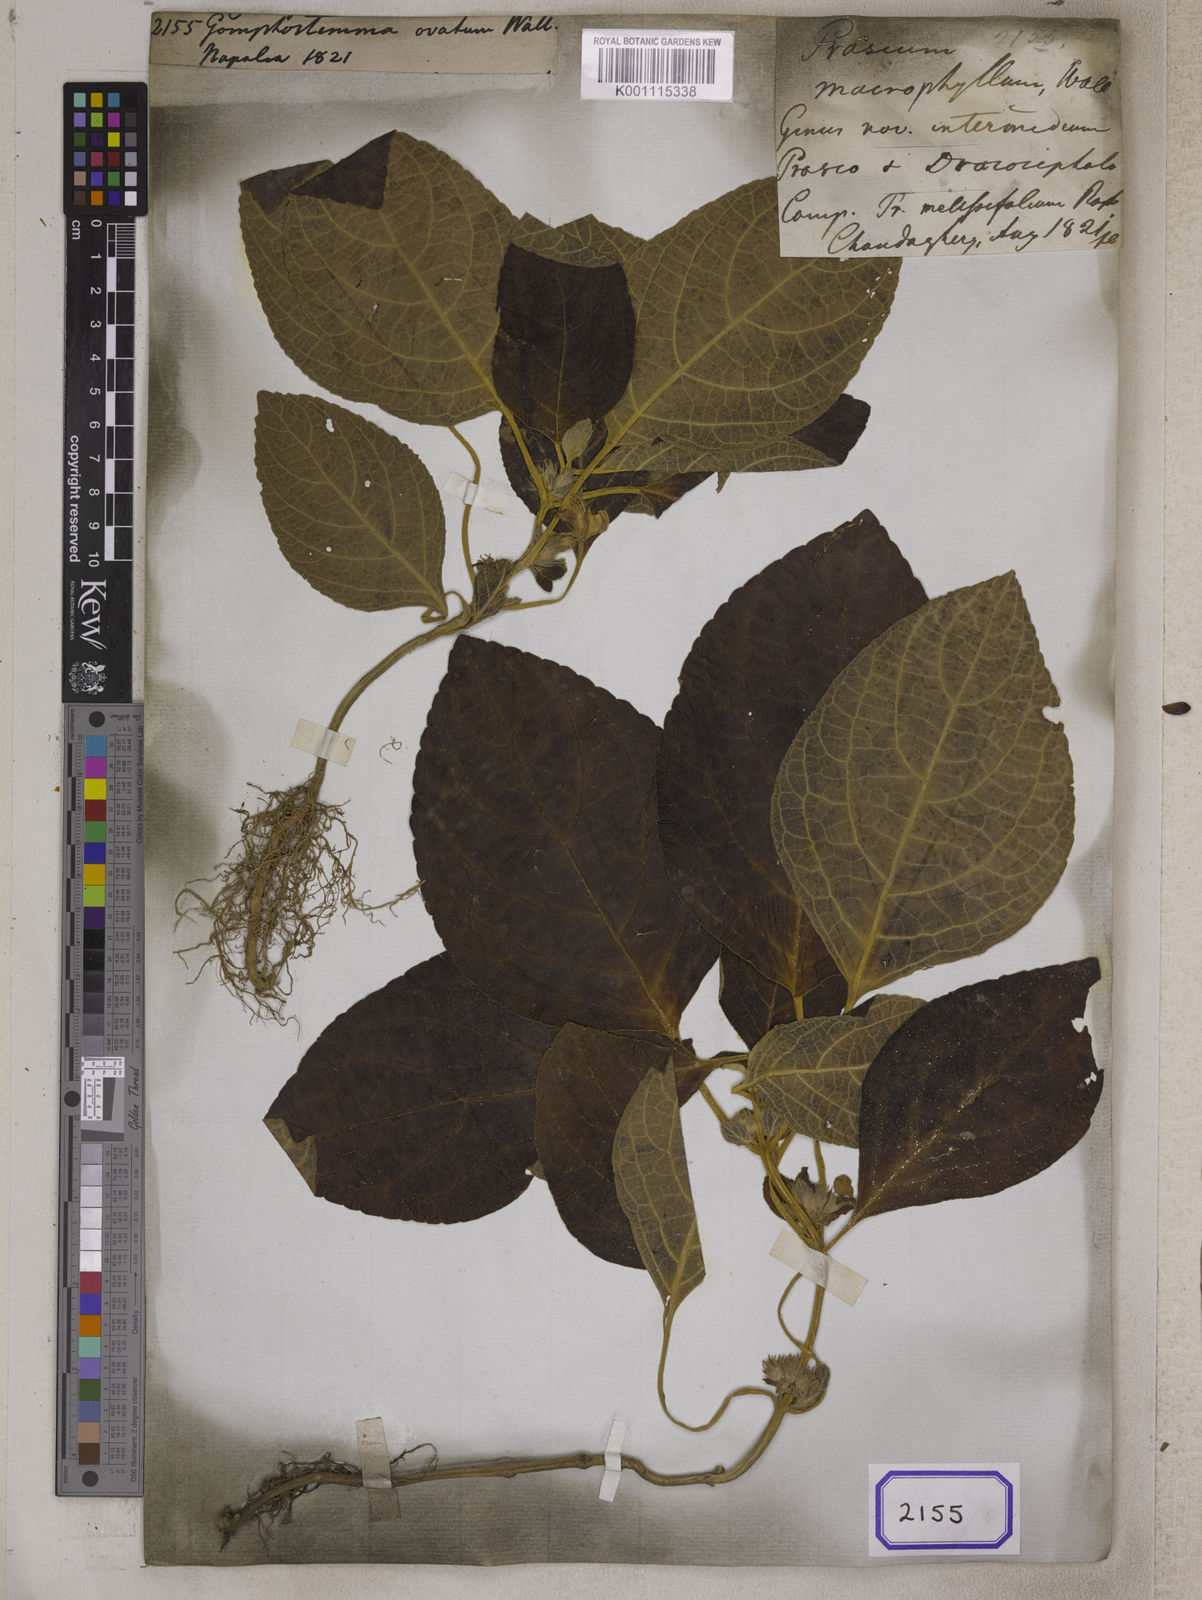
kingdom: Plantae
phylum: Tracheophyta
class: Magnoliopsida
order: Lamiales
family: Lamiaceae
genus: Gomphostemma
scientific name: Gomphostemma
